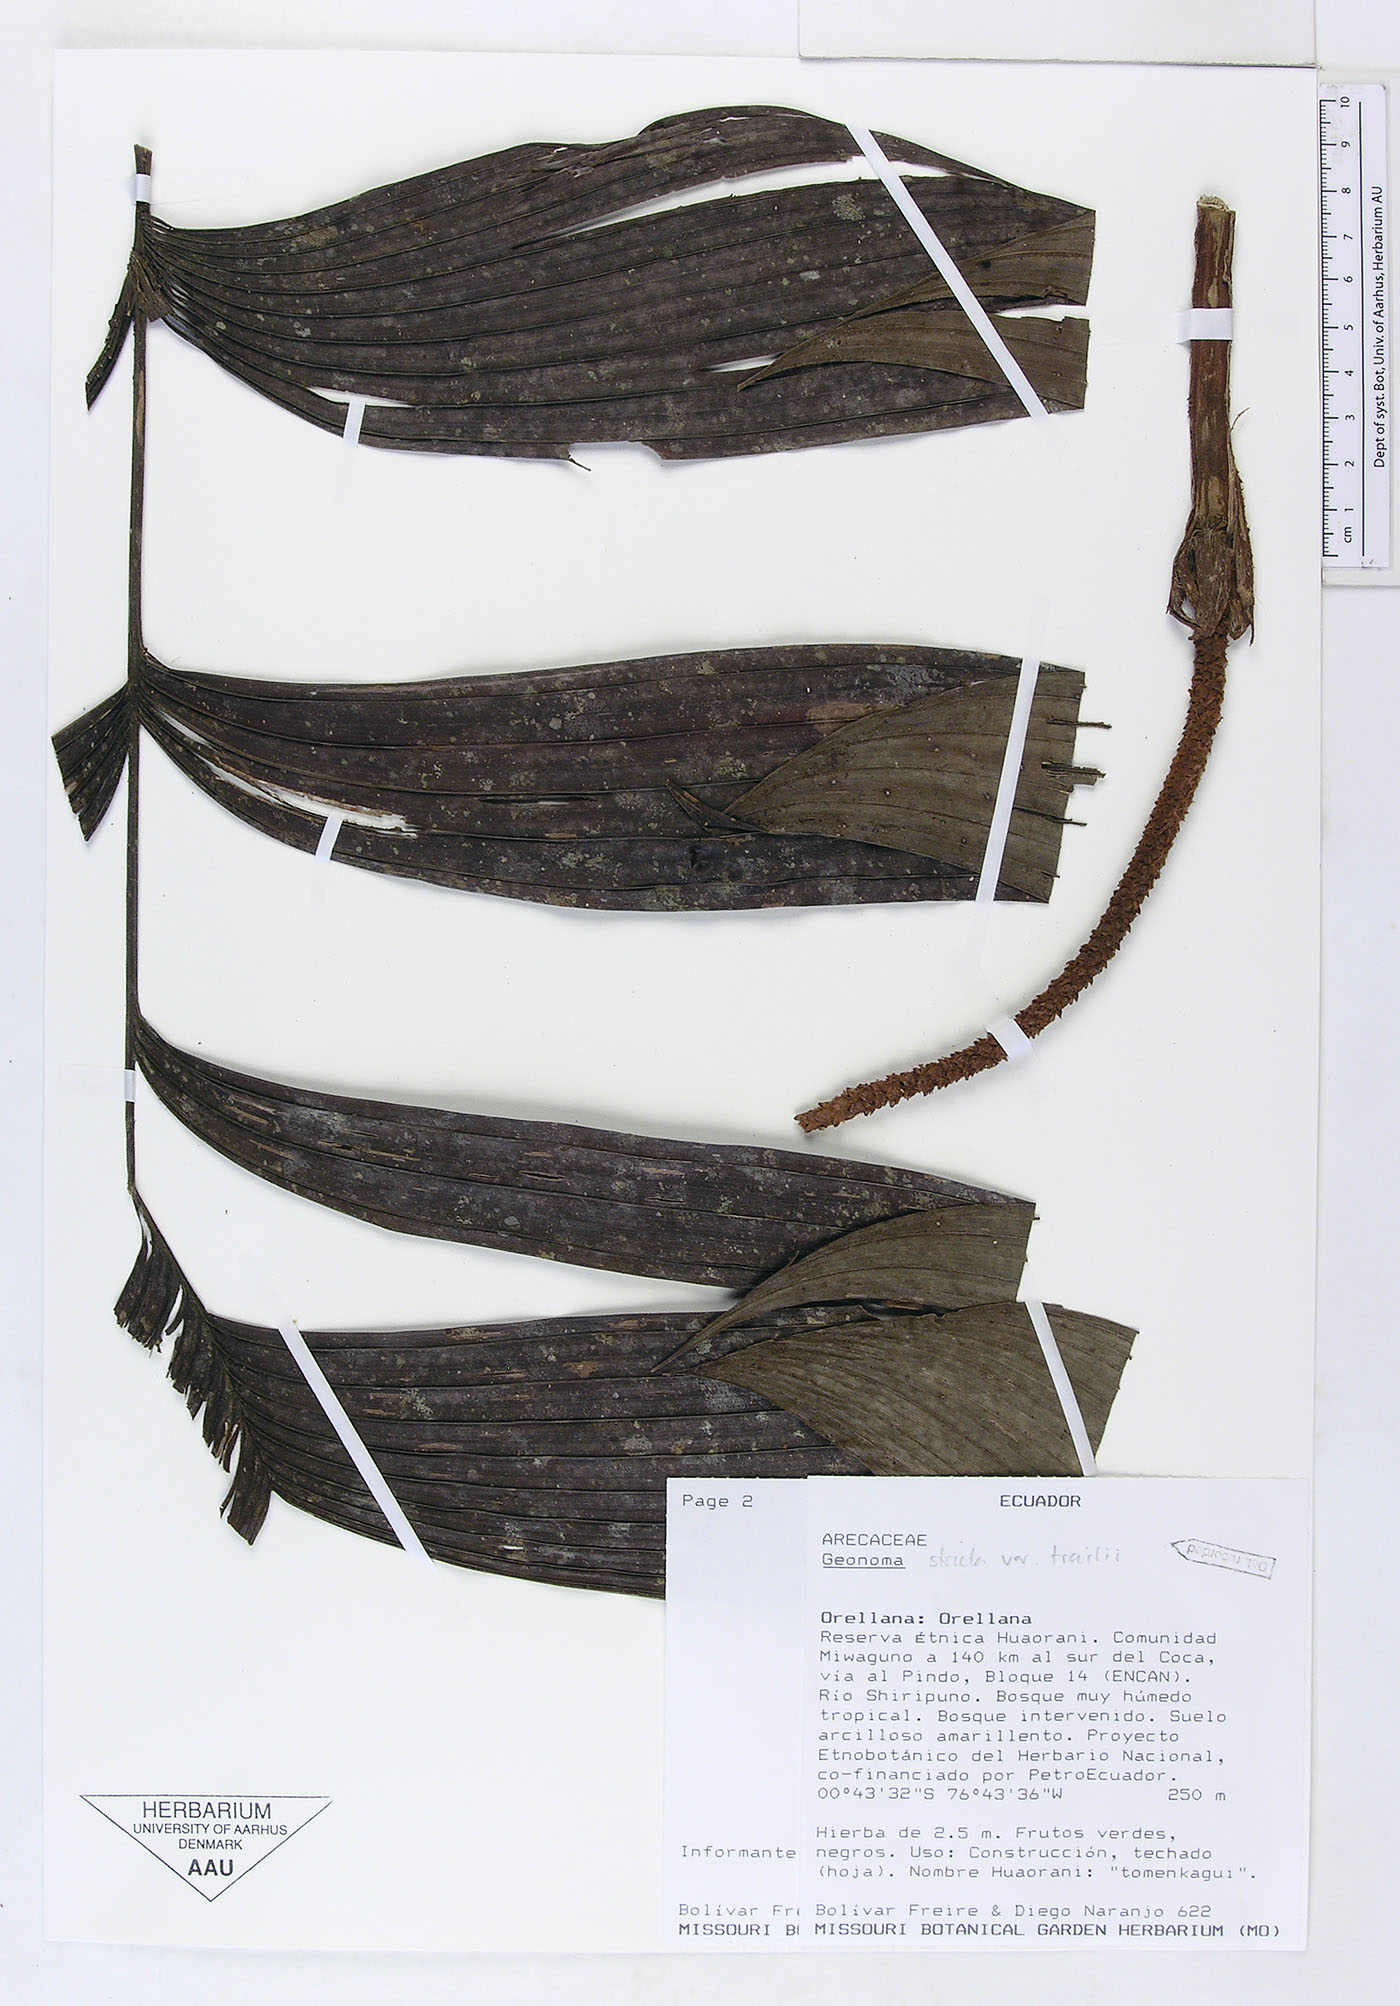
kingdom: Plantae
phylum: Tracheophyta
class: Liliopsida
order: Arecales
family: Arecaceae
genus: Geonoma
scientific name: Geonoma stricta
